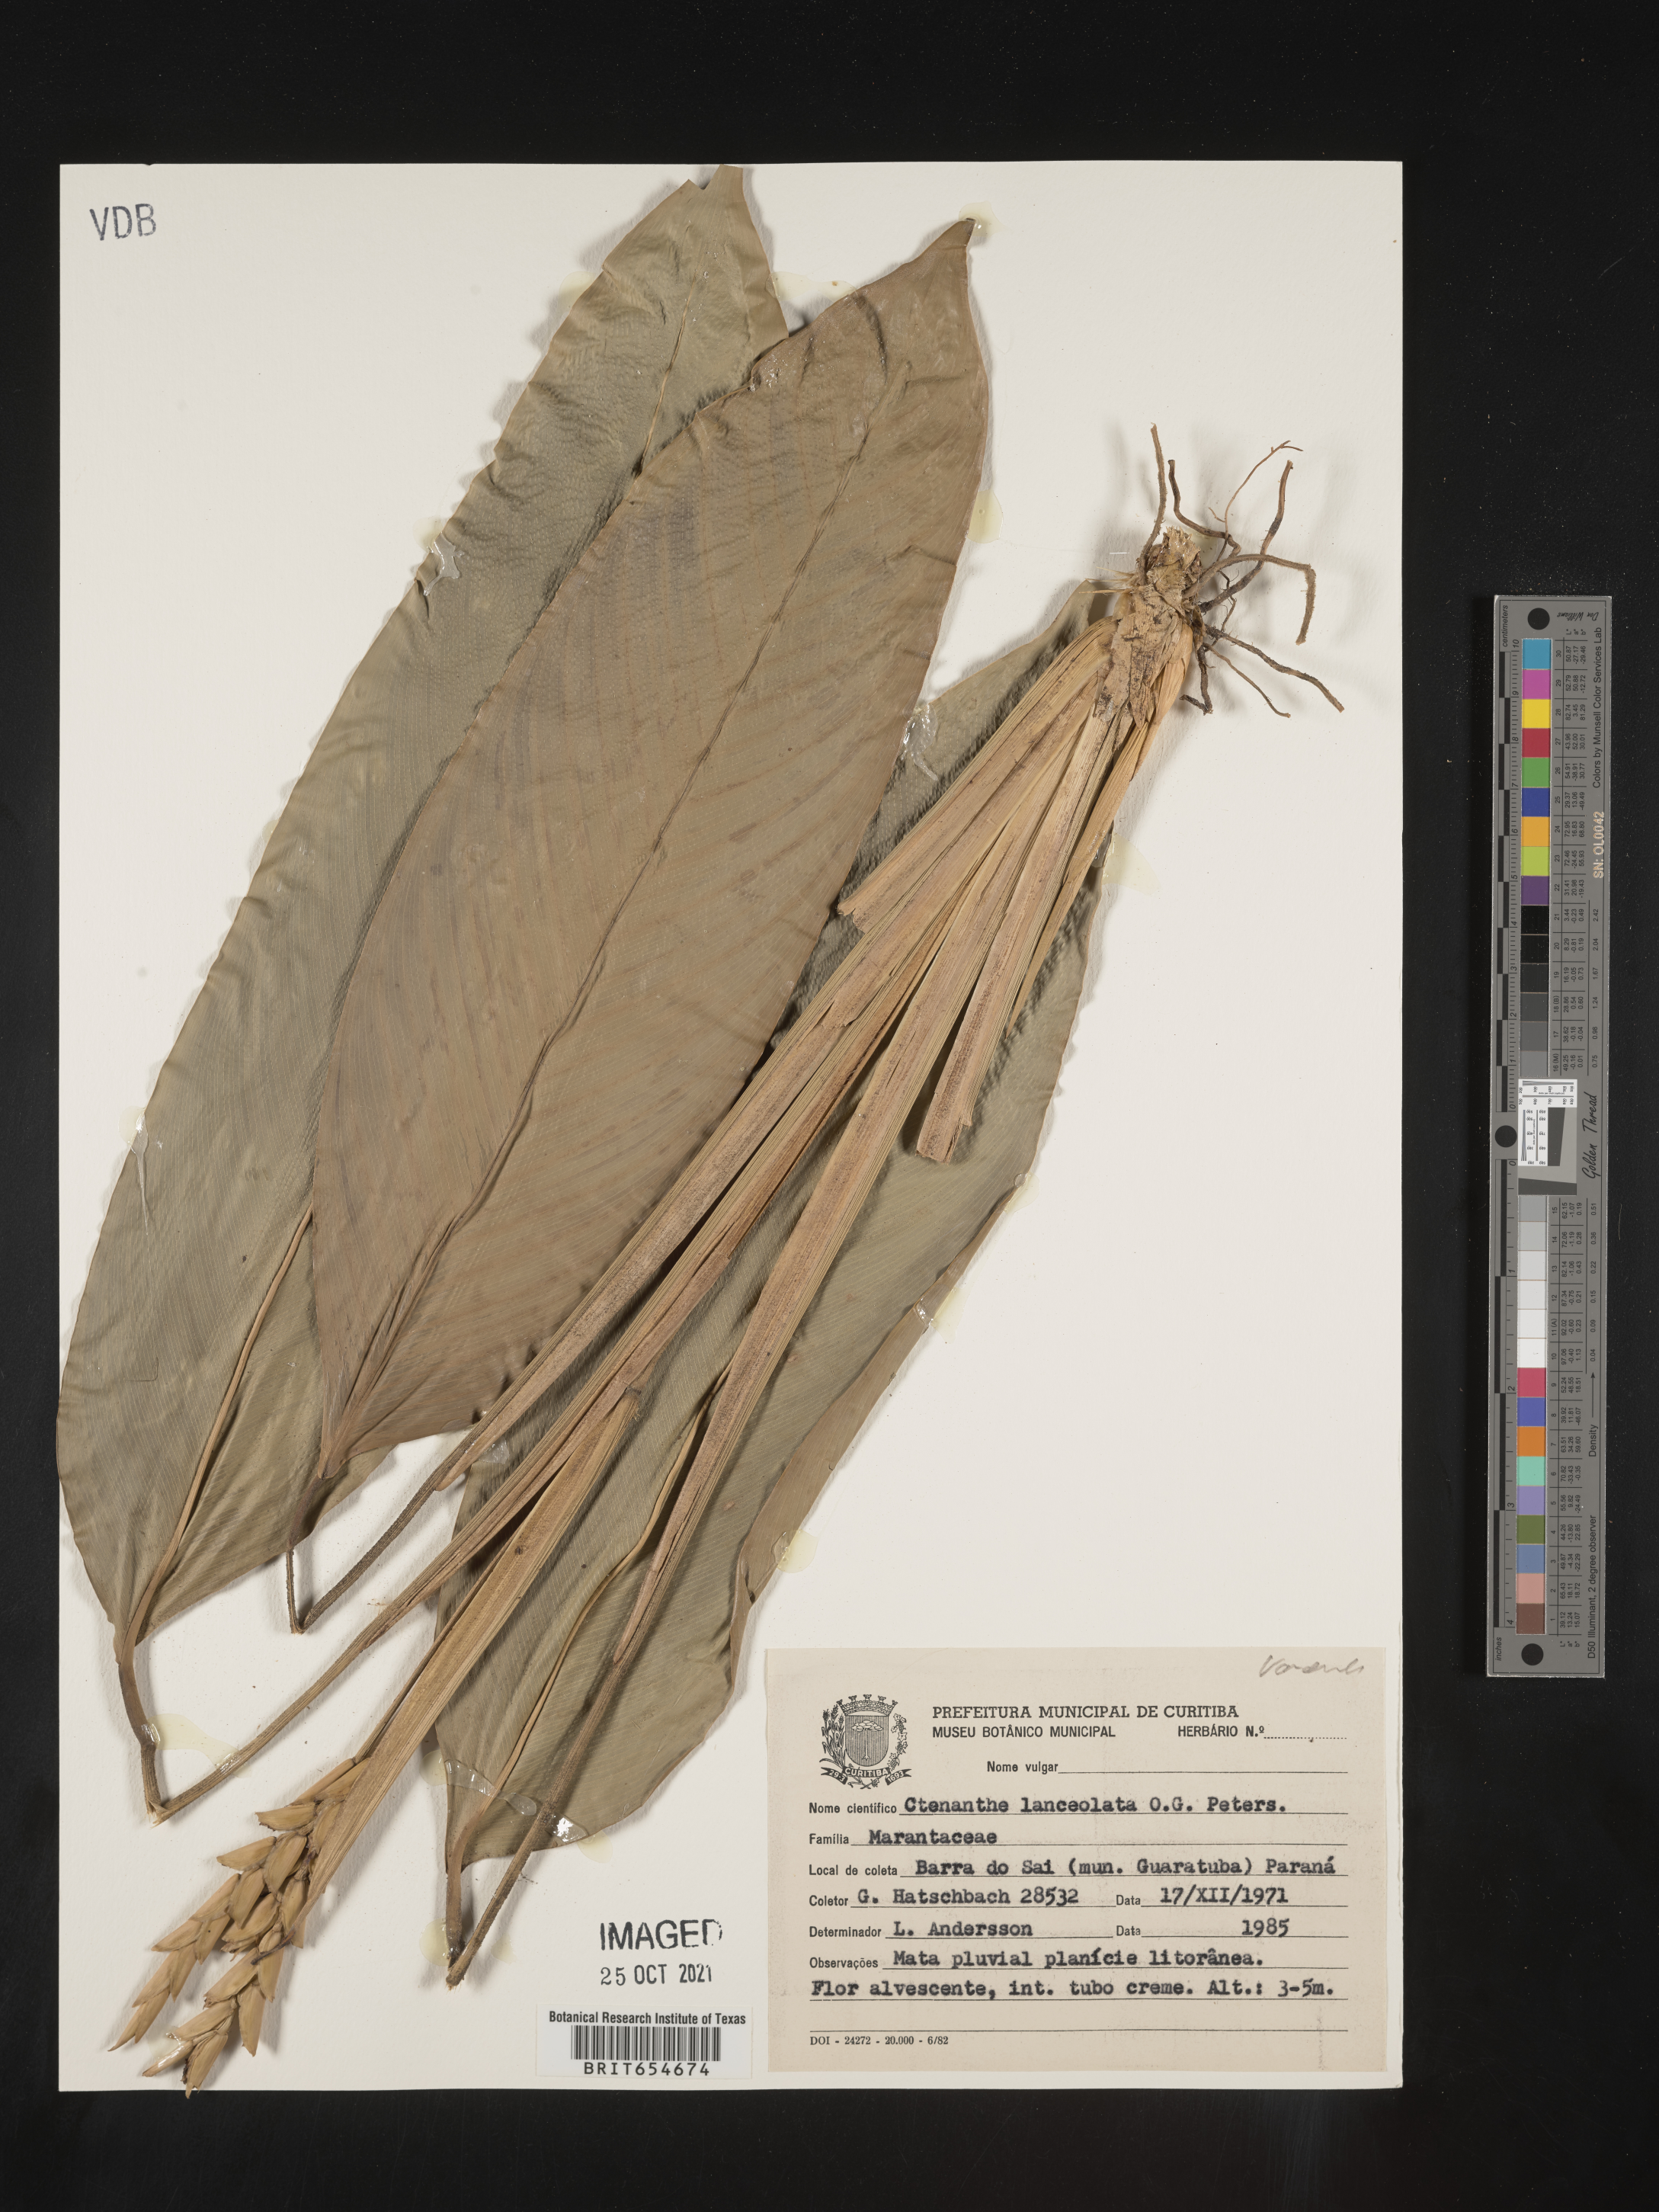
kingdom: Plantae
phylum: Tracheophyta
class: Liliopsida
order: Zingiberales
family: Marantaceae
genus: Ctenanthe
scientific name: Ctenanthe
